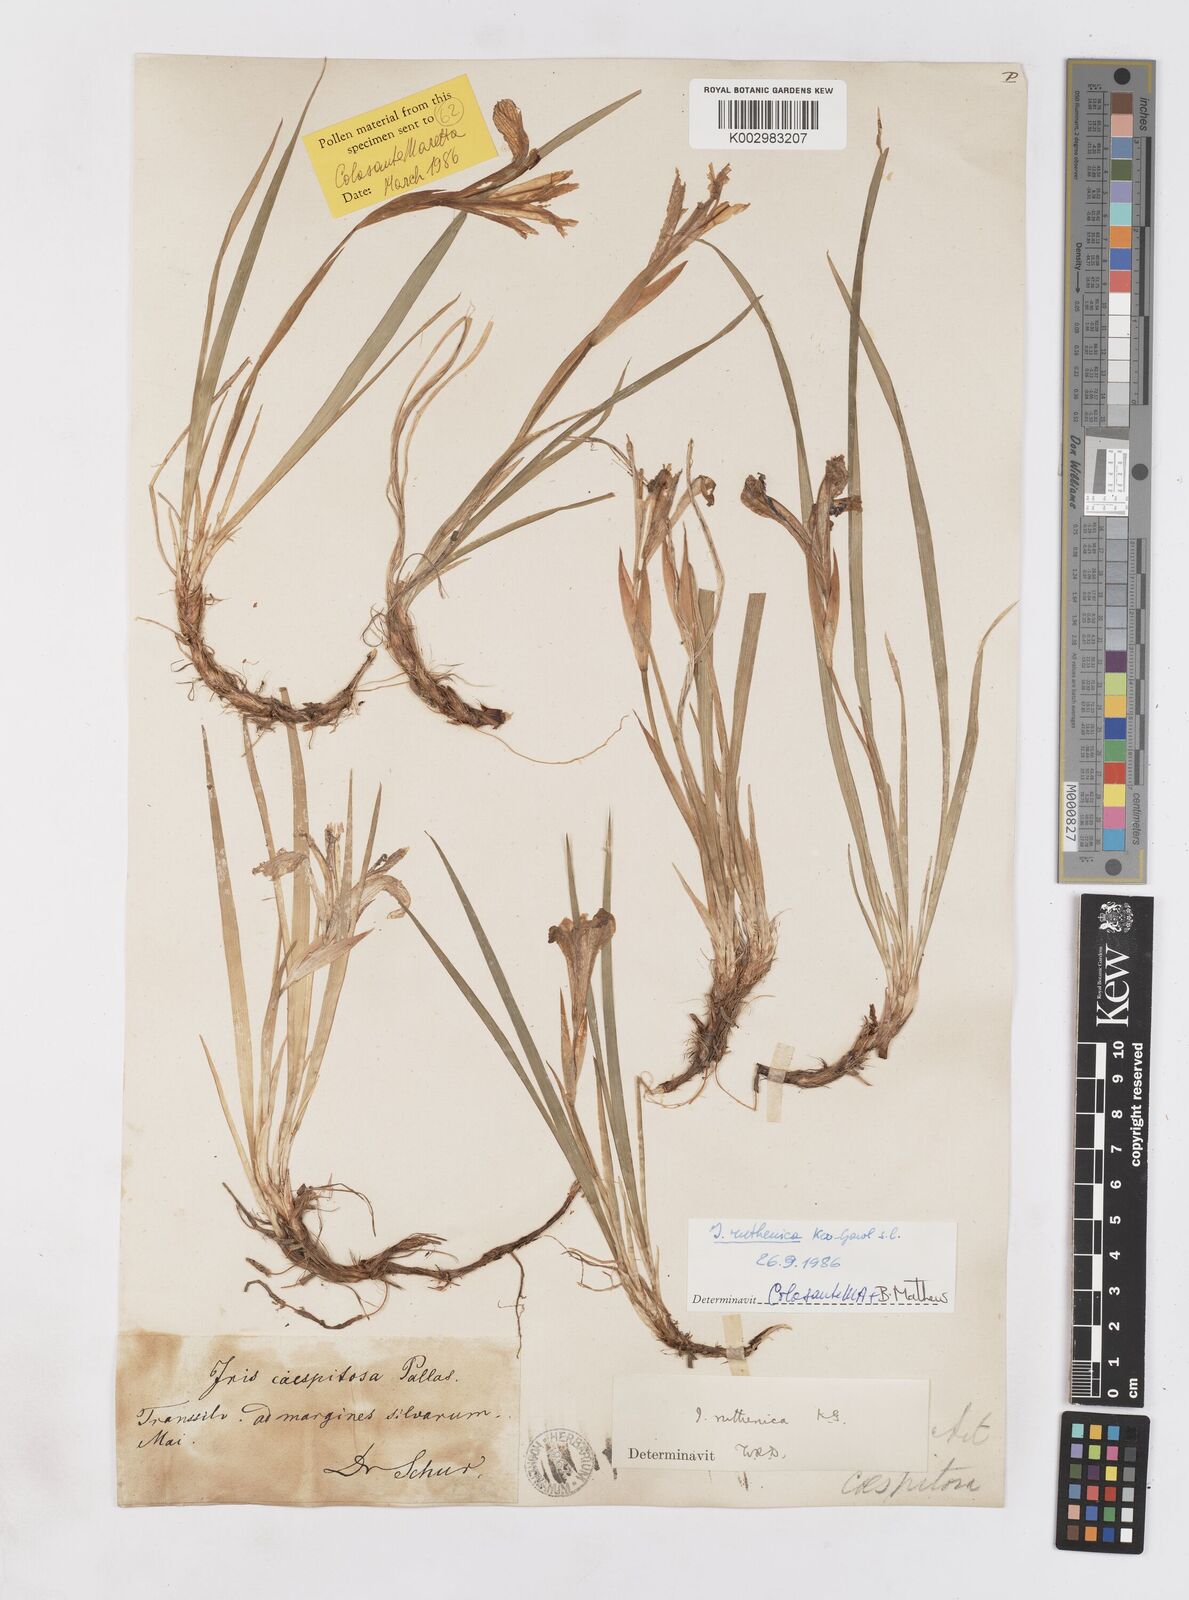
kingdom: Plantae
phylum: Tracheophyta
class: Liliopsida
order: Asparagales
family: Iridaceae
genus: Iris
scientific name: Iris ruthenica
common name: Purple-bract iris
